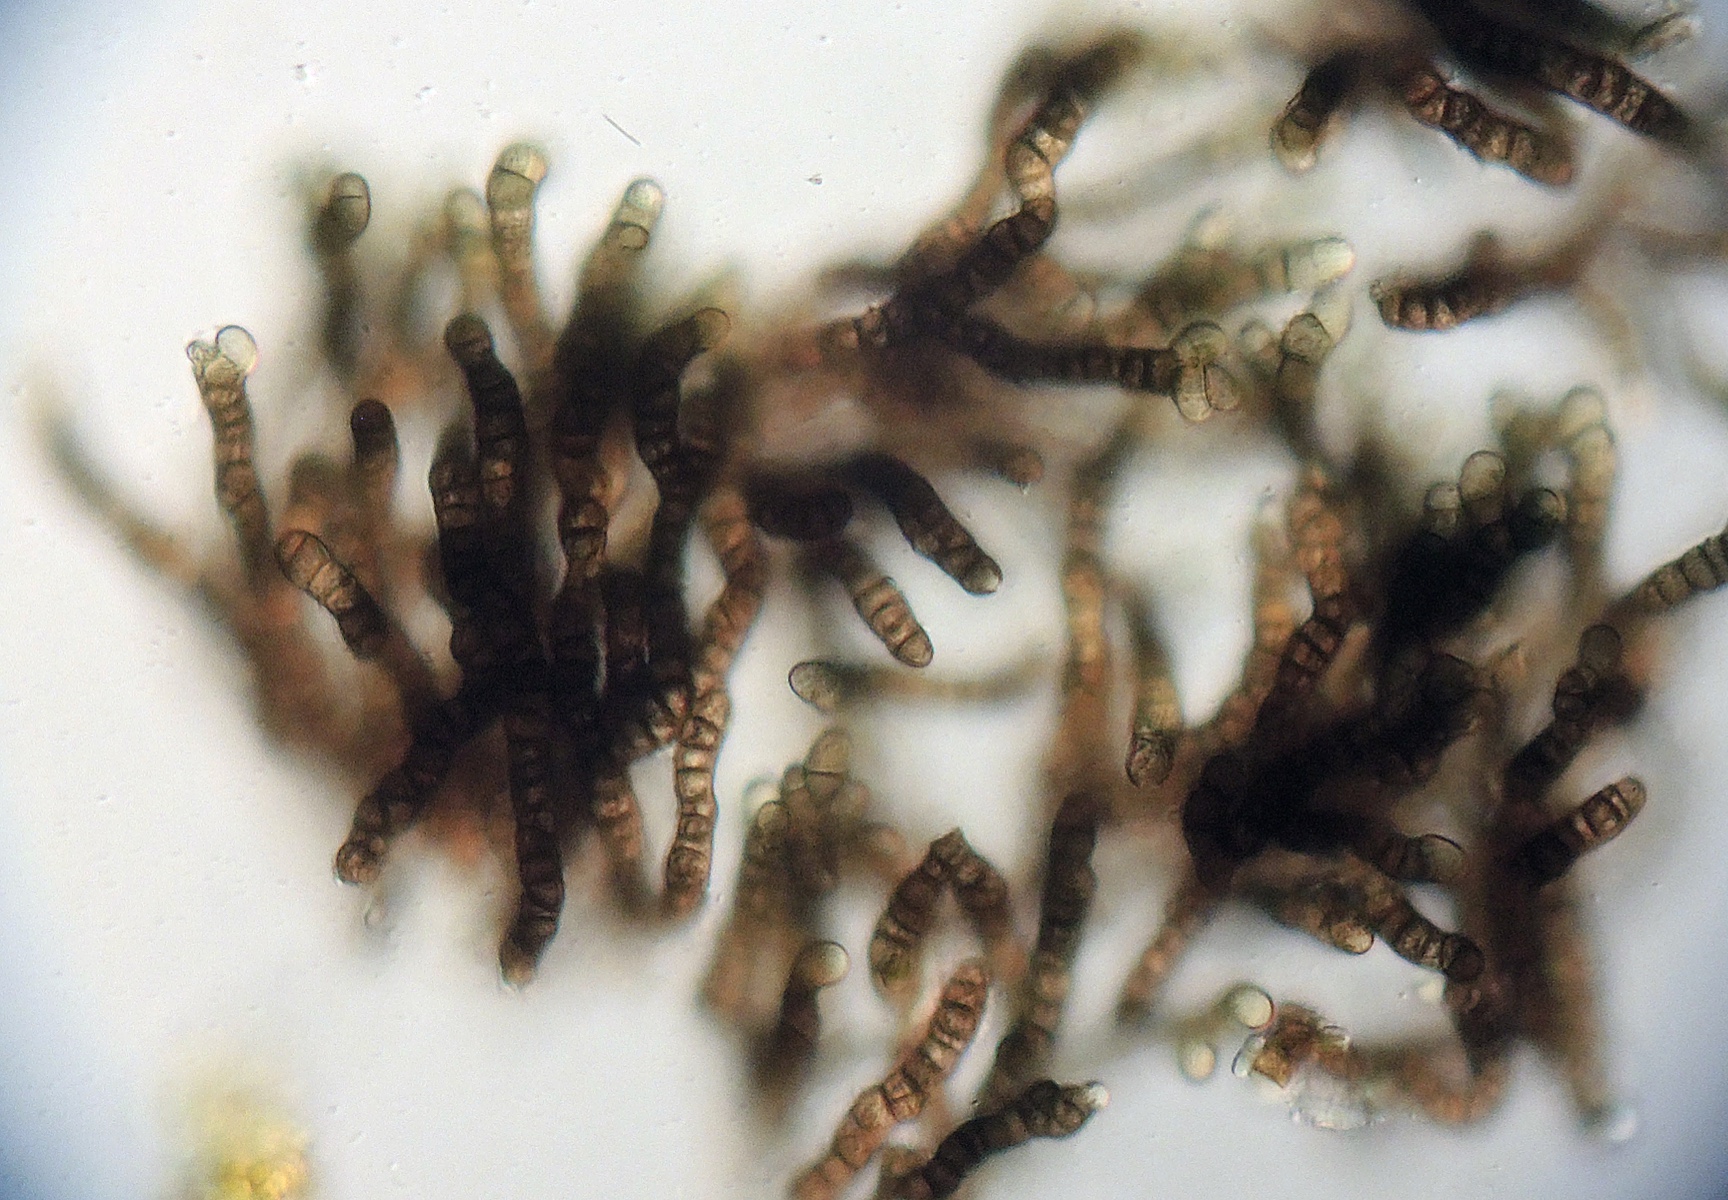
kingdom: Fungi
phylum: Ascomycota
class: Dothideomycetes
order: Mytilinidiales
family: Mytilinidiaceae
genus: Taeniolella
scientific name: Taeniolella stilbospora
